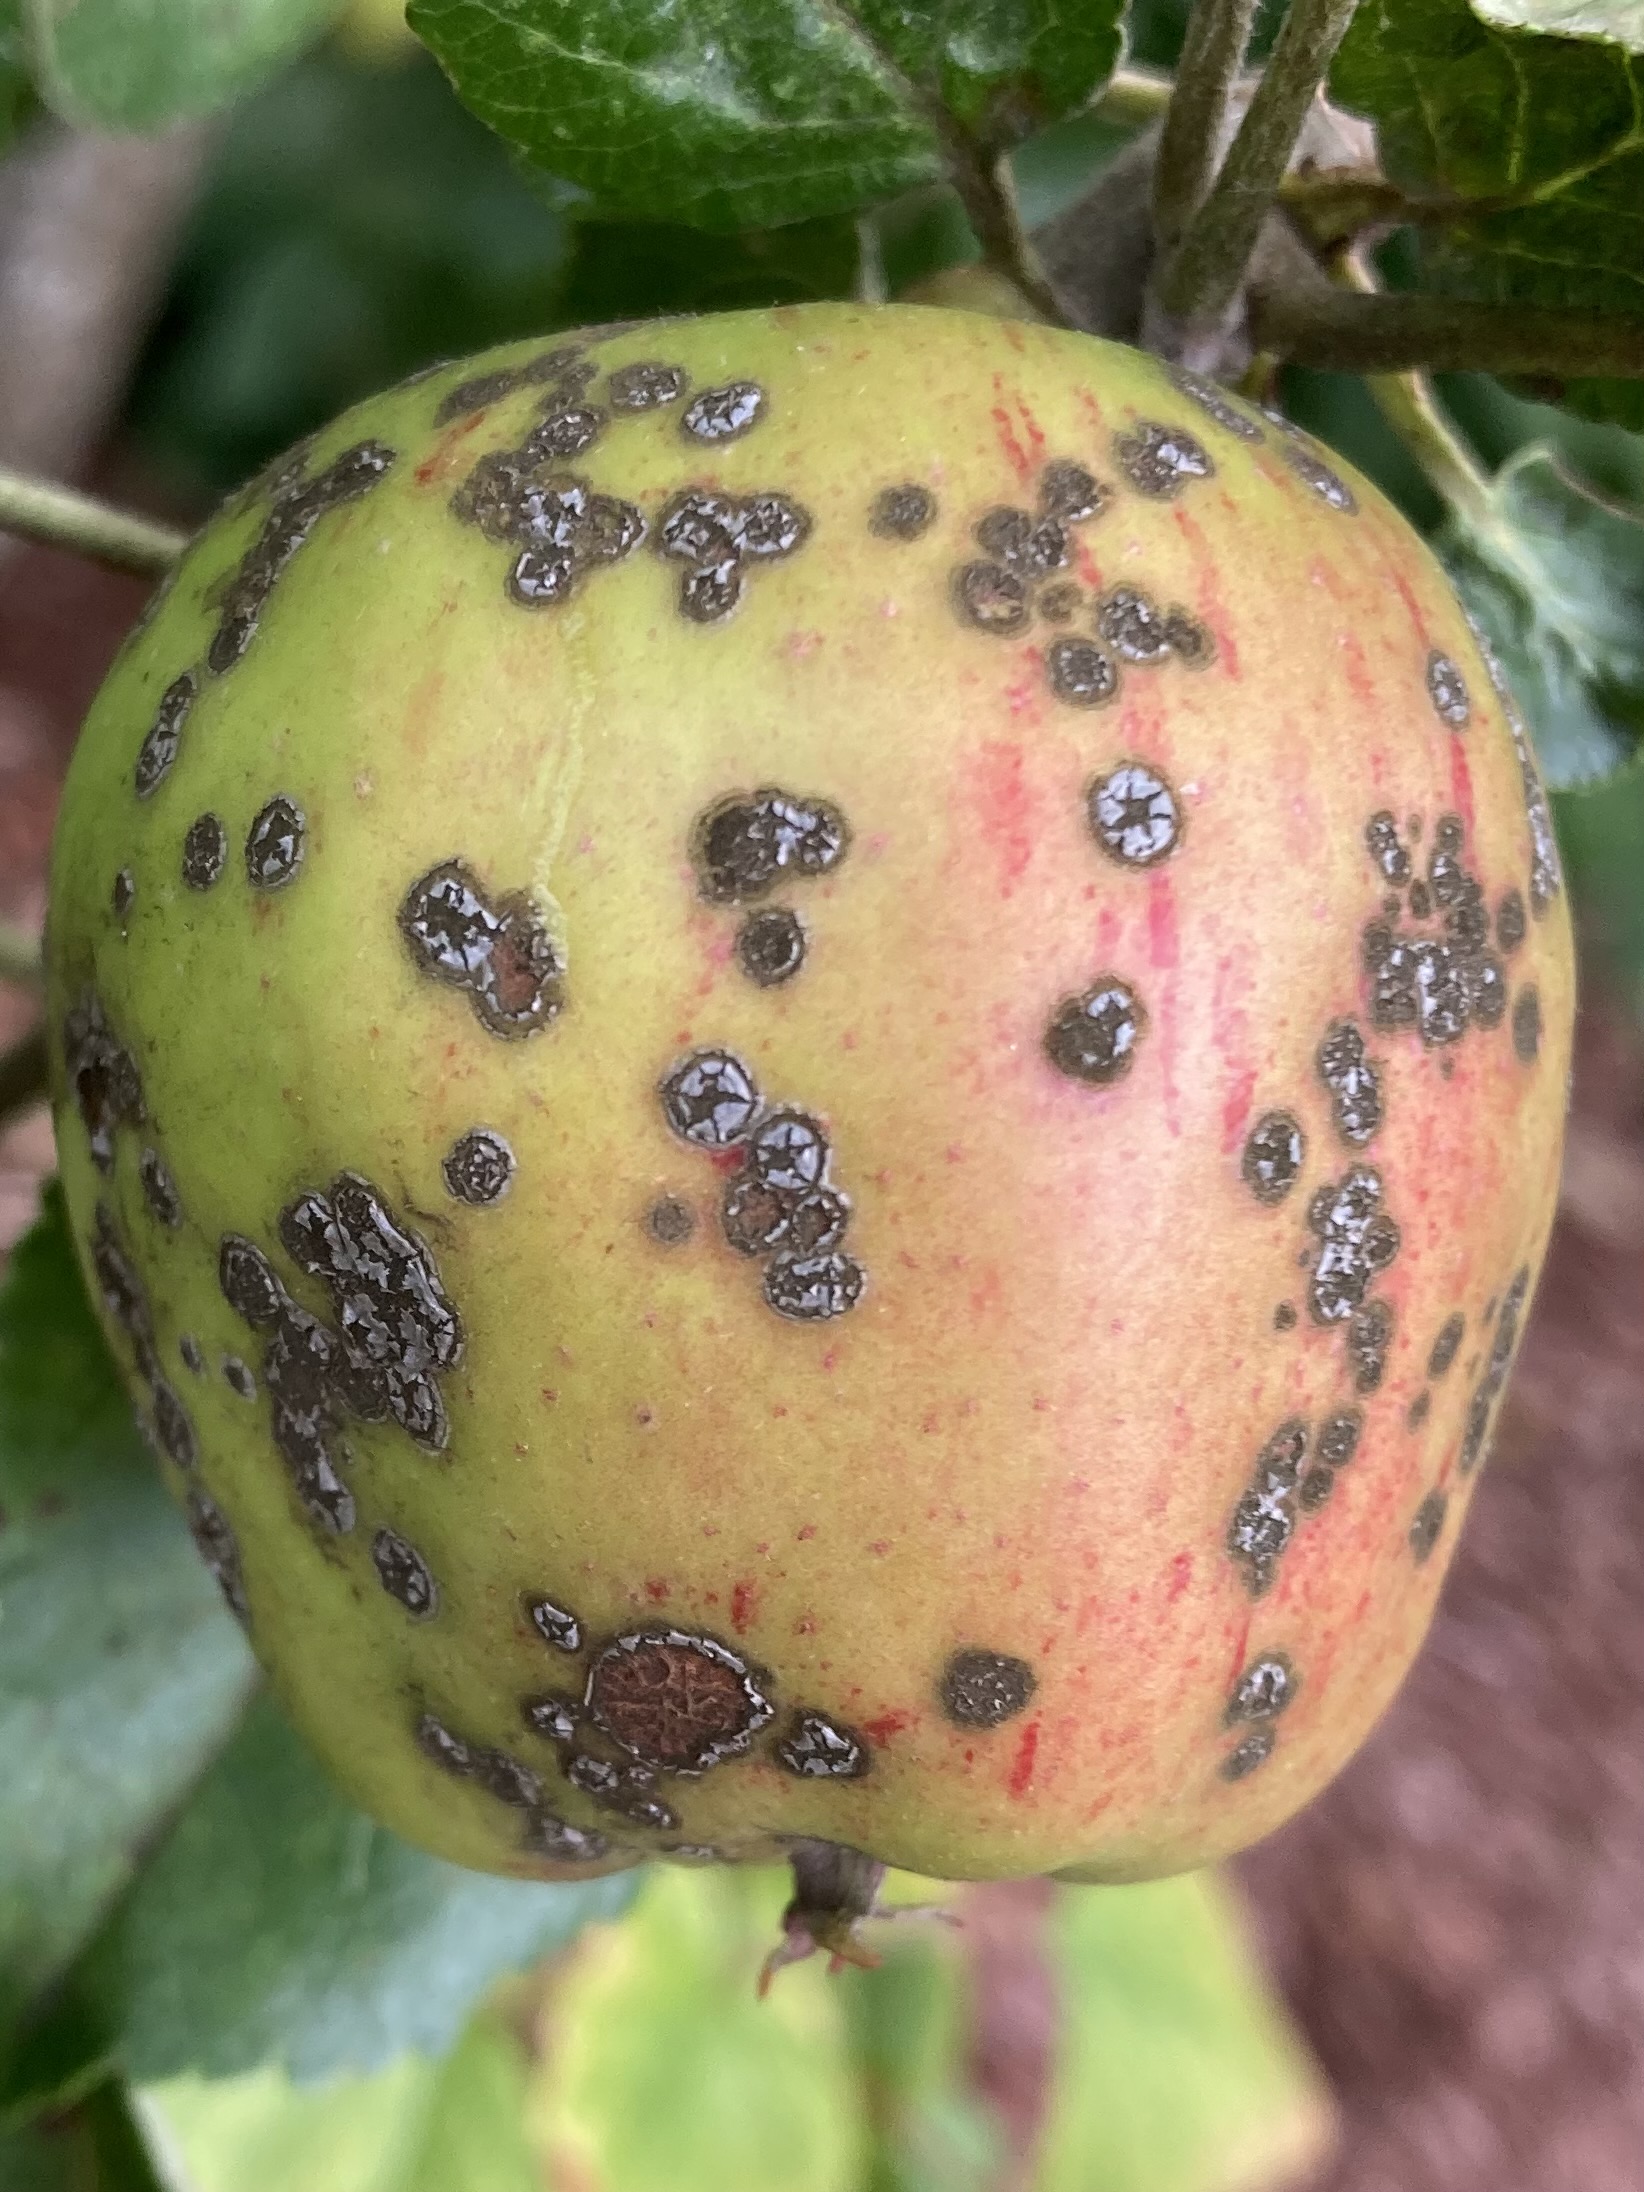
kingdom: Fungi
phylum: Ascomycota
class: Dothideomycetes
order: Venturiales
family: Venturiaceae
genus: Venturia
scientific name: Venturia inaequalis
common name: Apple scab
